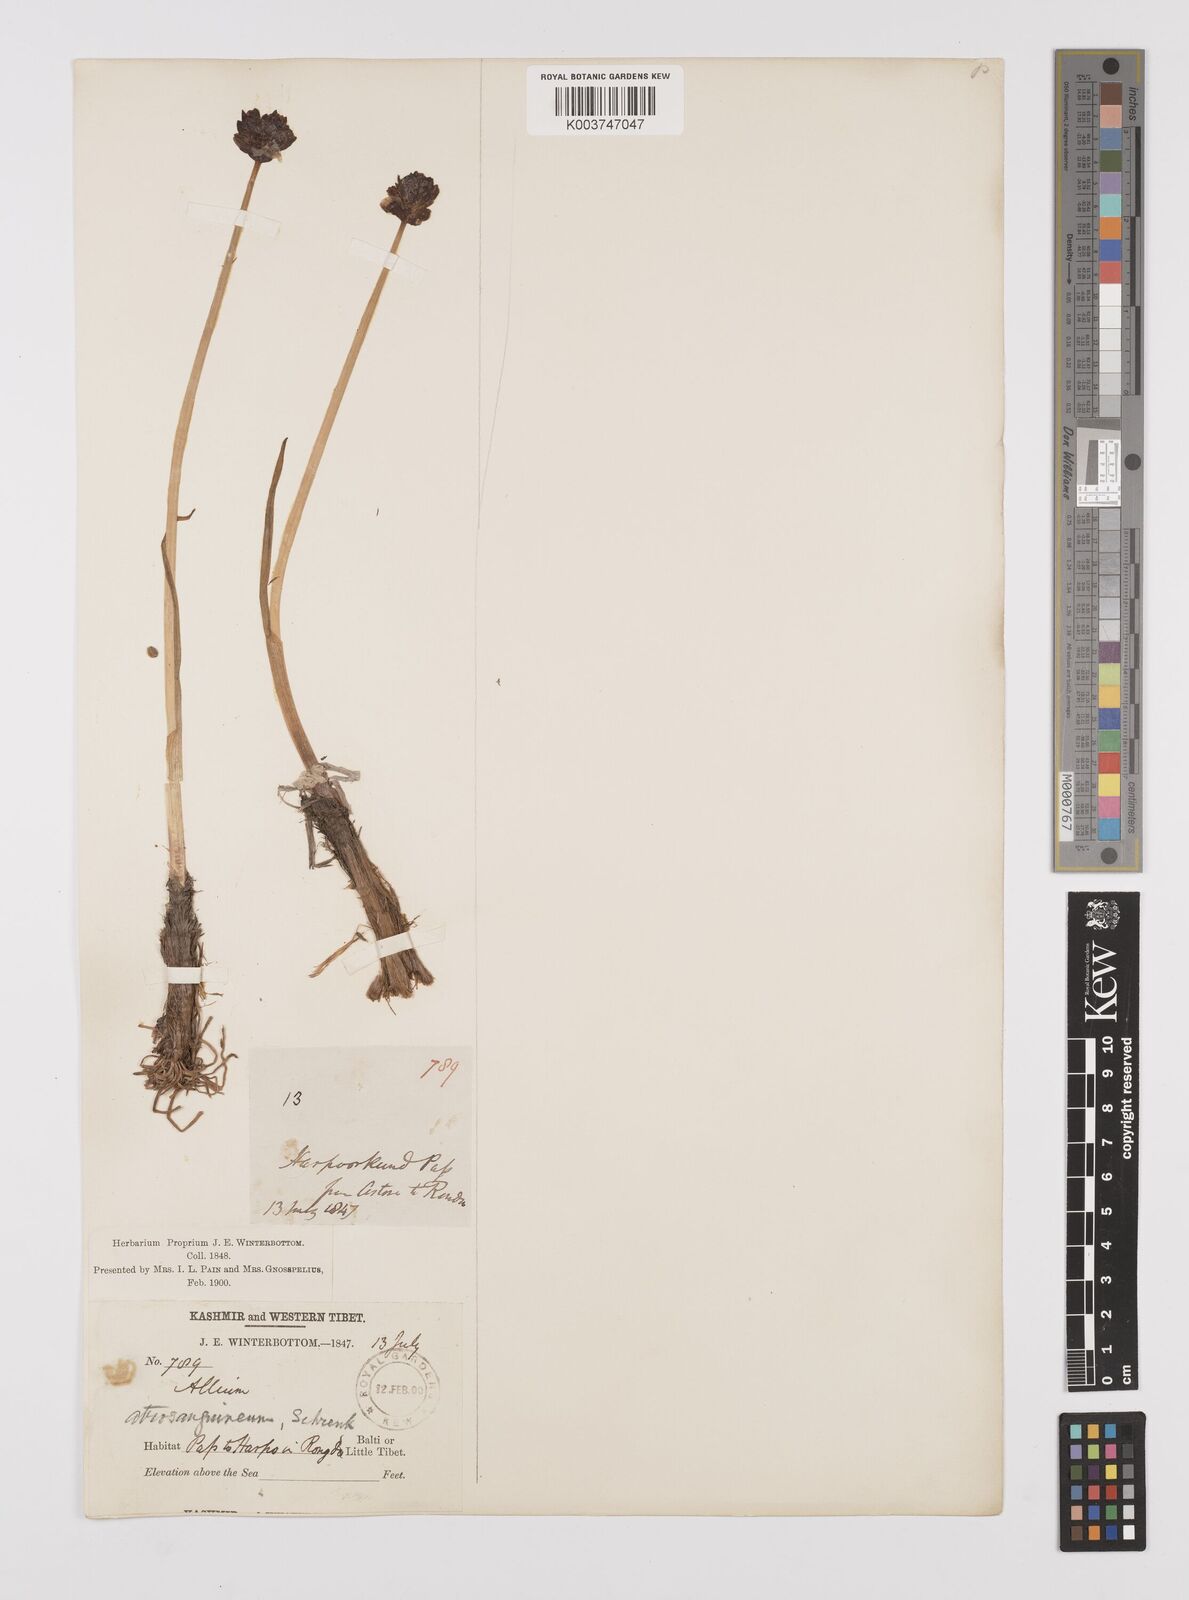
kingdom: Plantae
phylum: Tracheophyta
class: Liliopsida
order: Asparagales
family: Amaryllidaceae
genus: Allium
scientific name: Allium atrosanguineum
